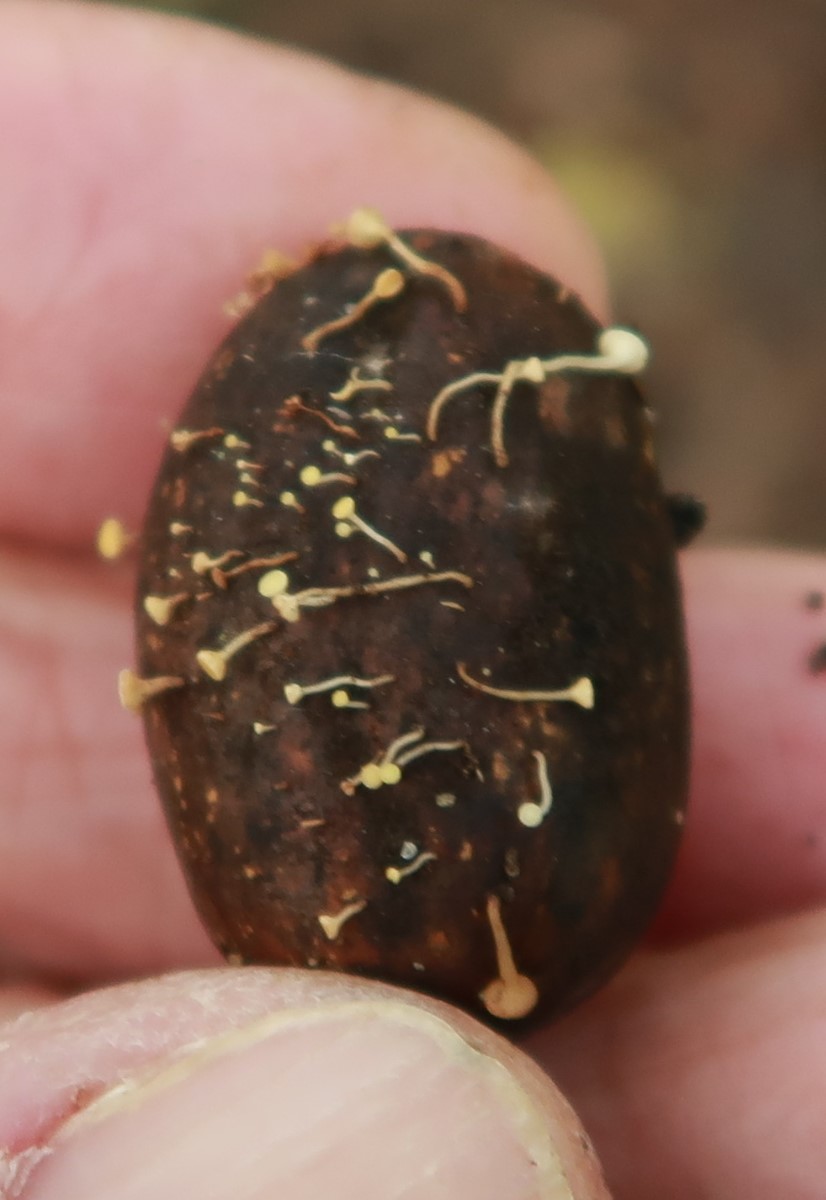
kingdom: Fungi
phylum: Ascomycota
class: Leotiomycetes
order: Helotiales
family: Helotiaceae
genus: Hymenoscyphus
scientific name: Hymenoscyphus fructigenus
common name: frugt-stilkskive
